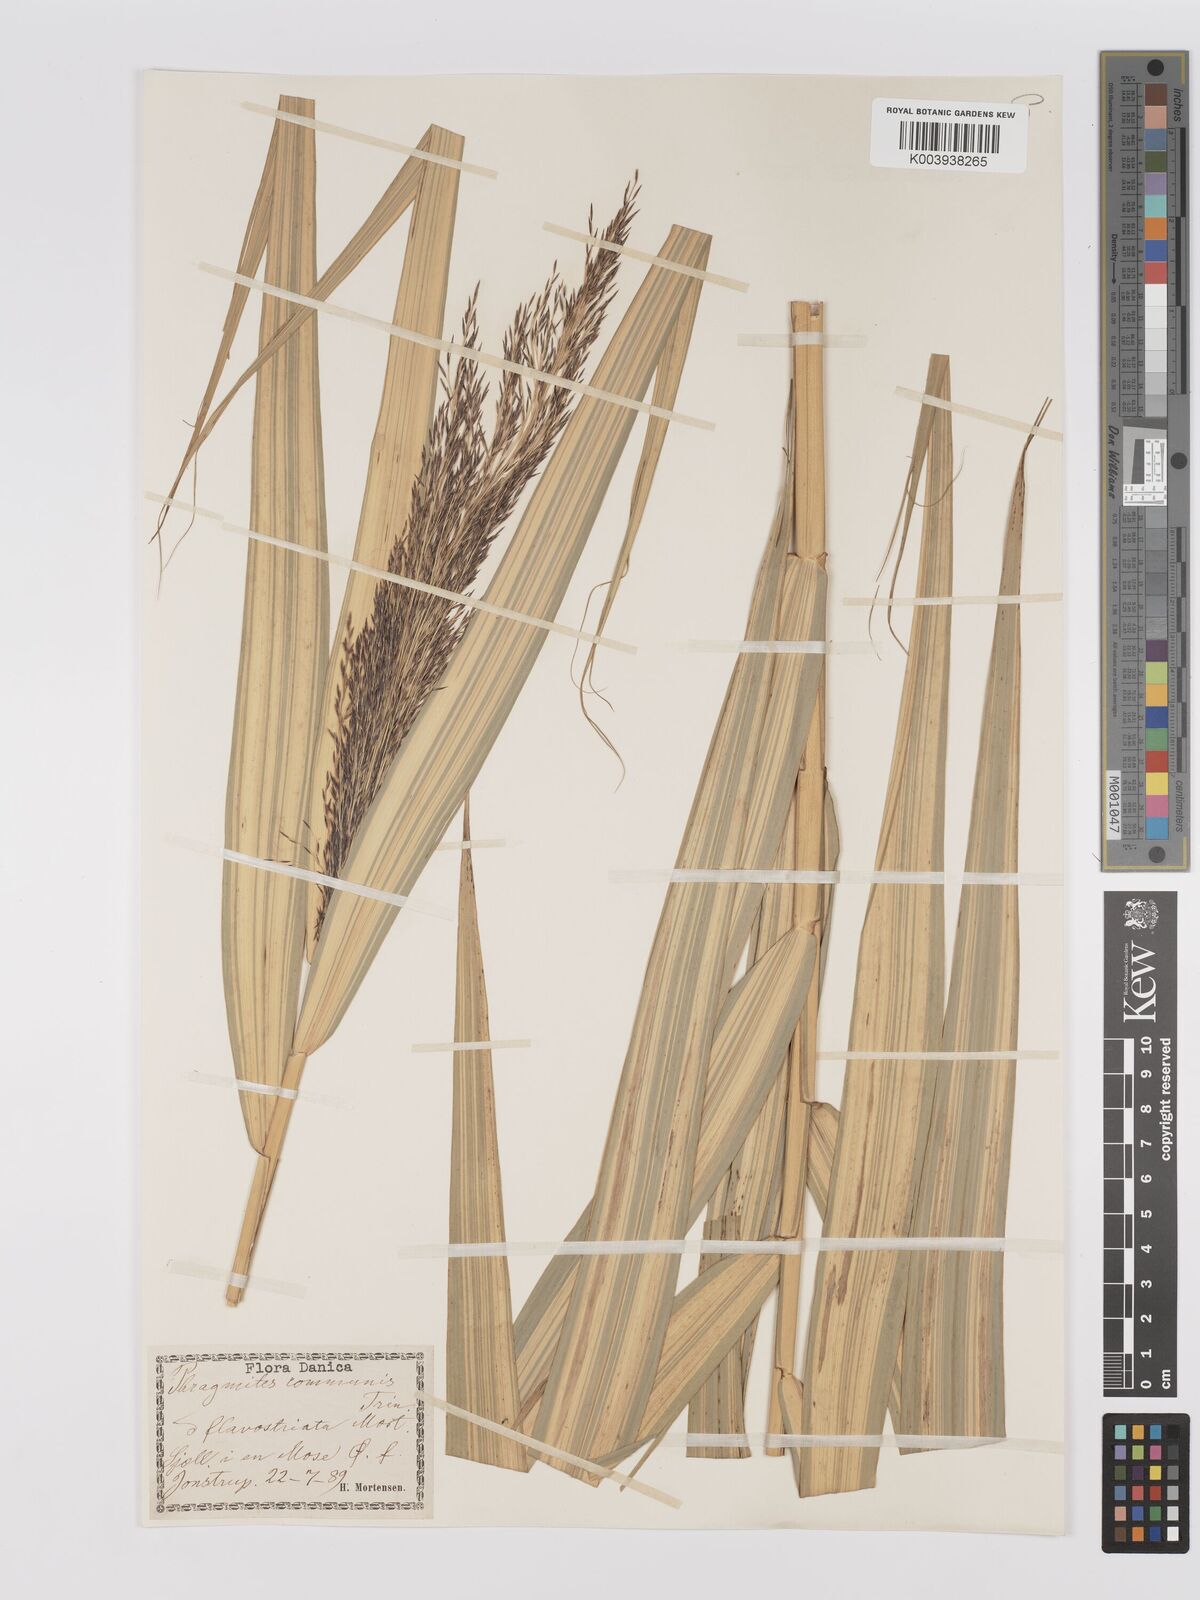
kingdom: Plantae
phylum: Tracheophyta
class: Liliopsida
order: Poales
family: Poaceae
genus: Phragmites
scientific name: Phragmites australis
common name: Common reed
